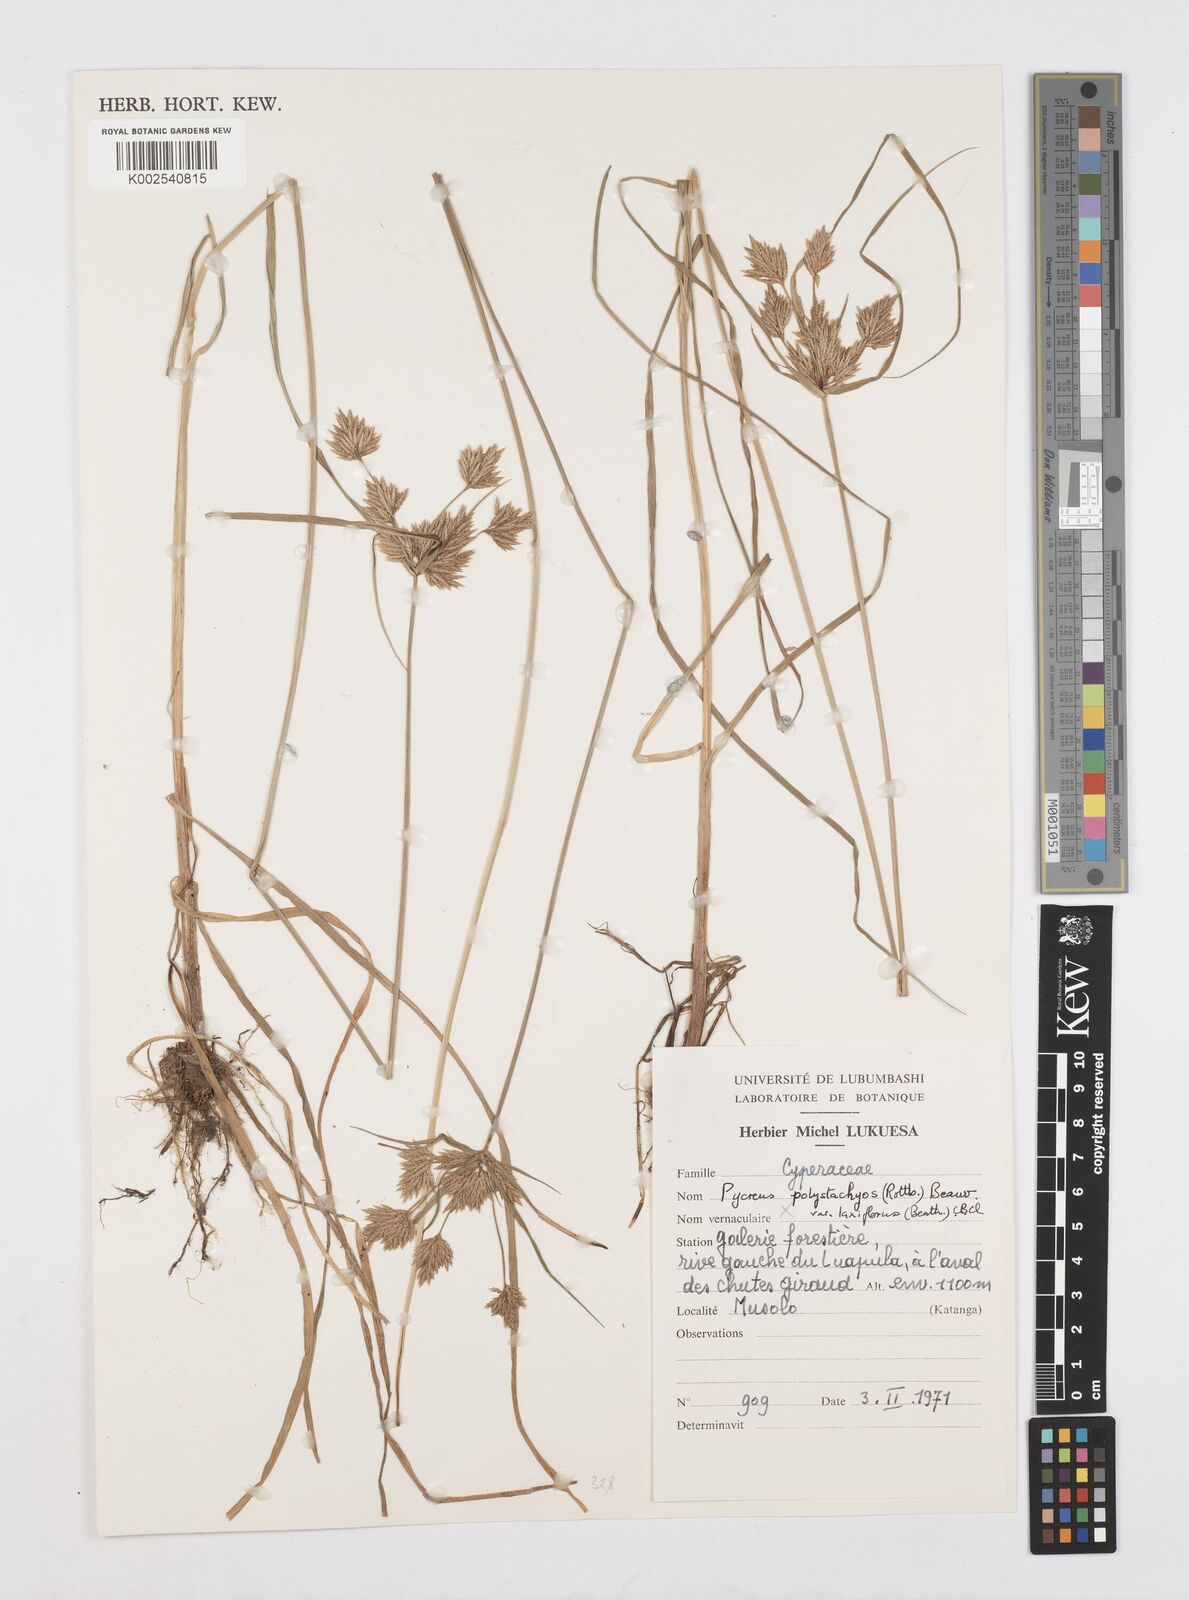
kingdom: Plantae
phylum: Tracheophyta
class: Liliopsida
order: Poales
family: Cyperaceae
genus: Cyperus
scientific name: Cyperus polystachyos
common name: Bunchy flat sedge
